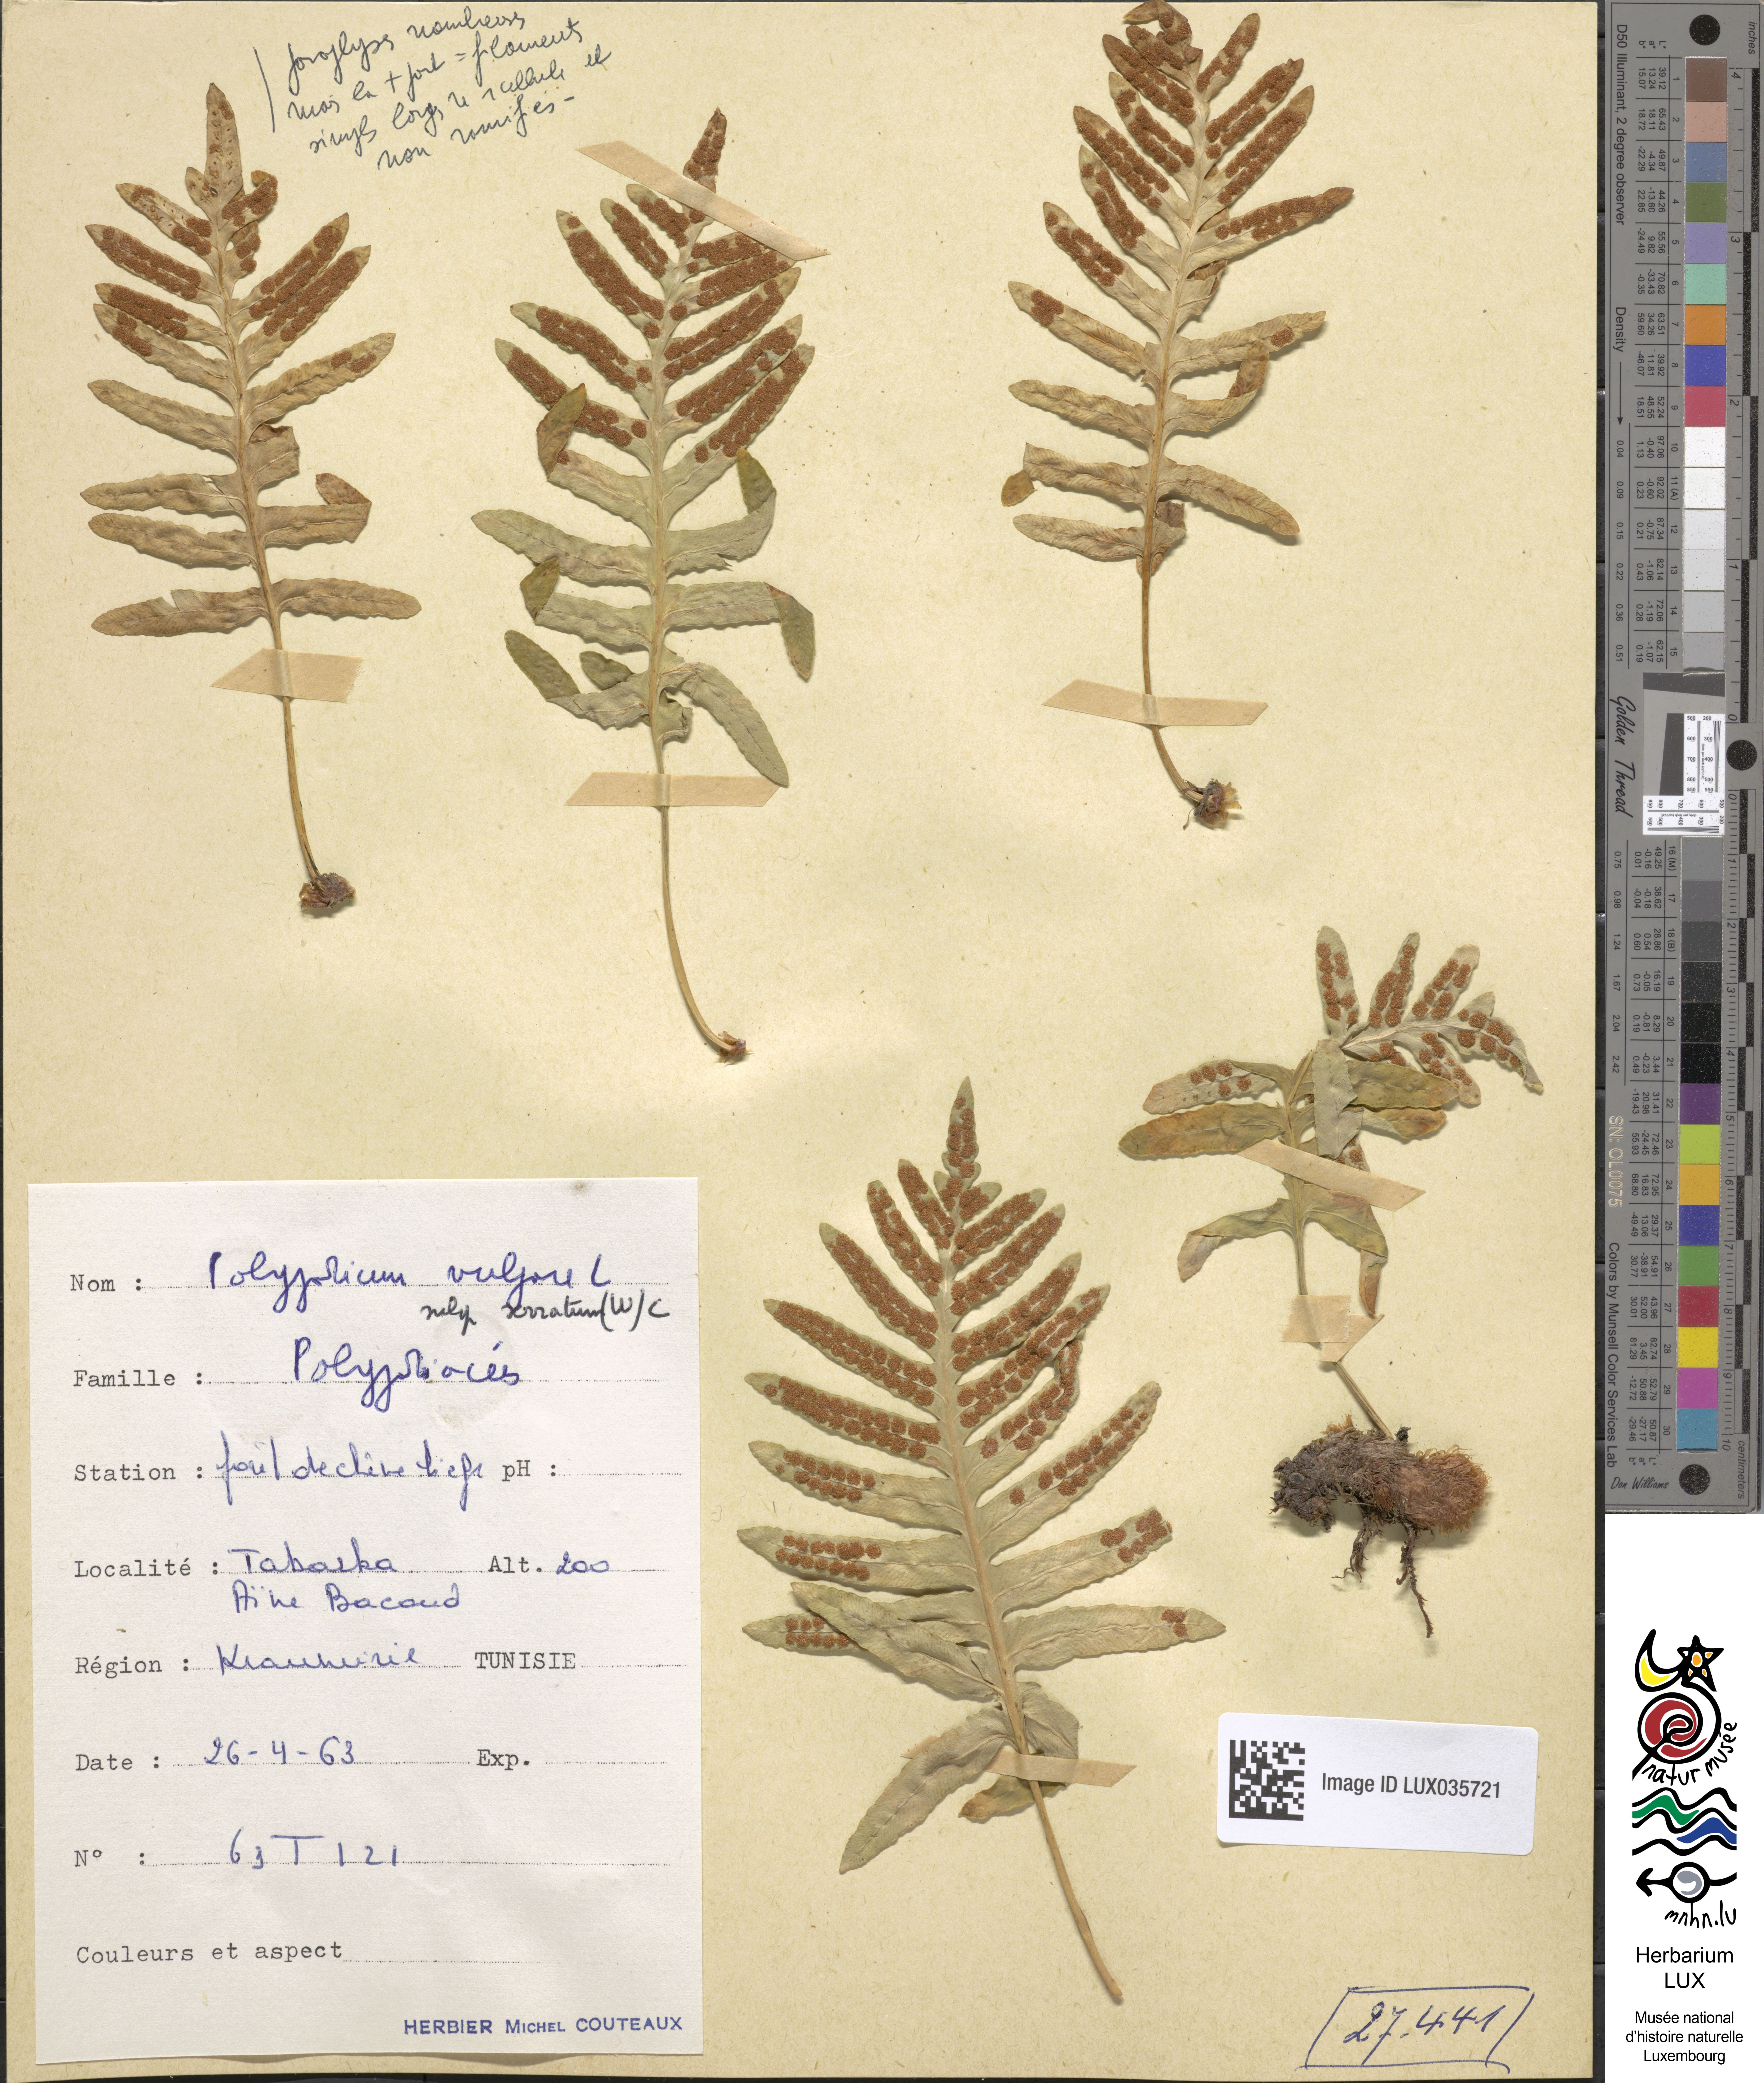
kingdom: Plantae
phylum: Tracheophyta
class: Polypodiopsida
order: Polypodiales
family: Polypodiaceae
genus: Polypodium
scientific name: Polypodium cambricum
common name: Southern polypody
